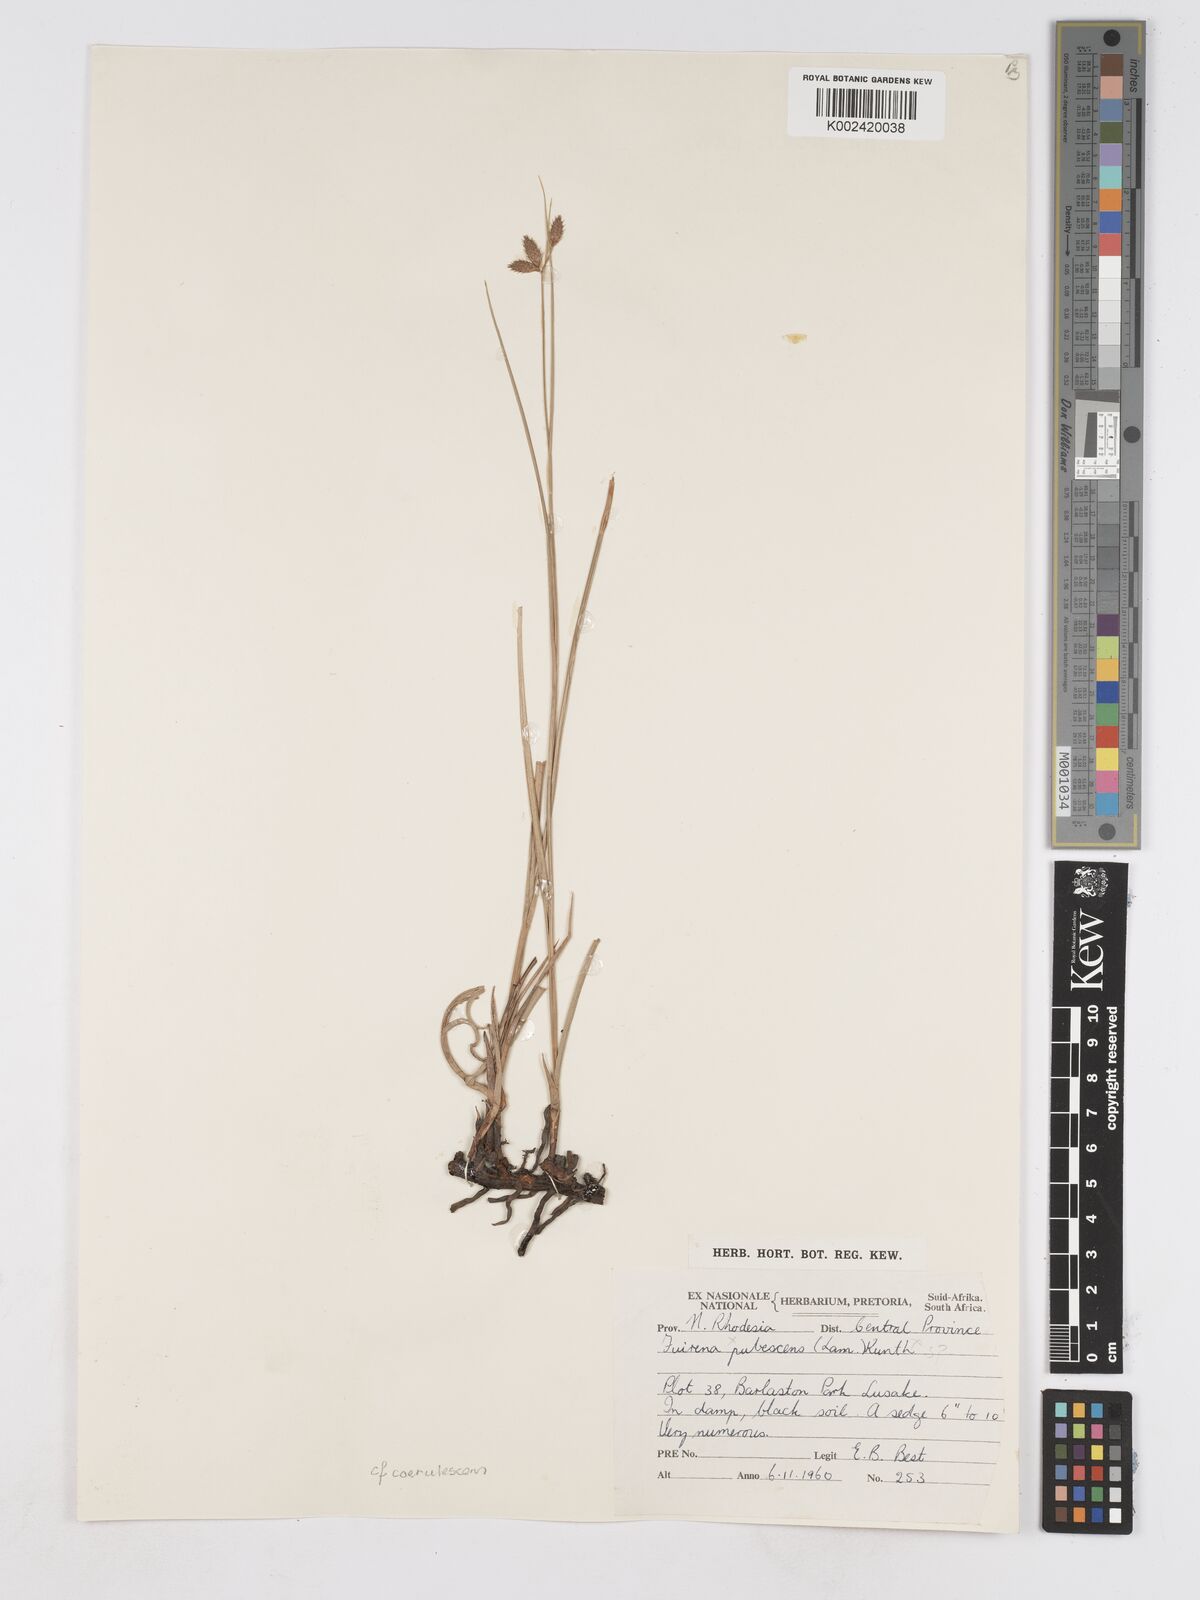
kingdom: Plantae
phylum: Tracheophyta
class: Liliopsida
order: Poales
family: Cyperaceae
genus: Fuirena
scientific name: Fuirena
